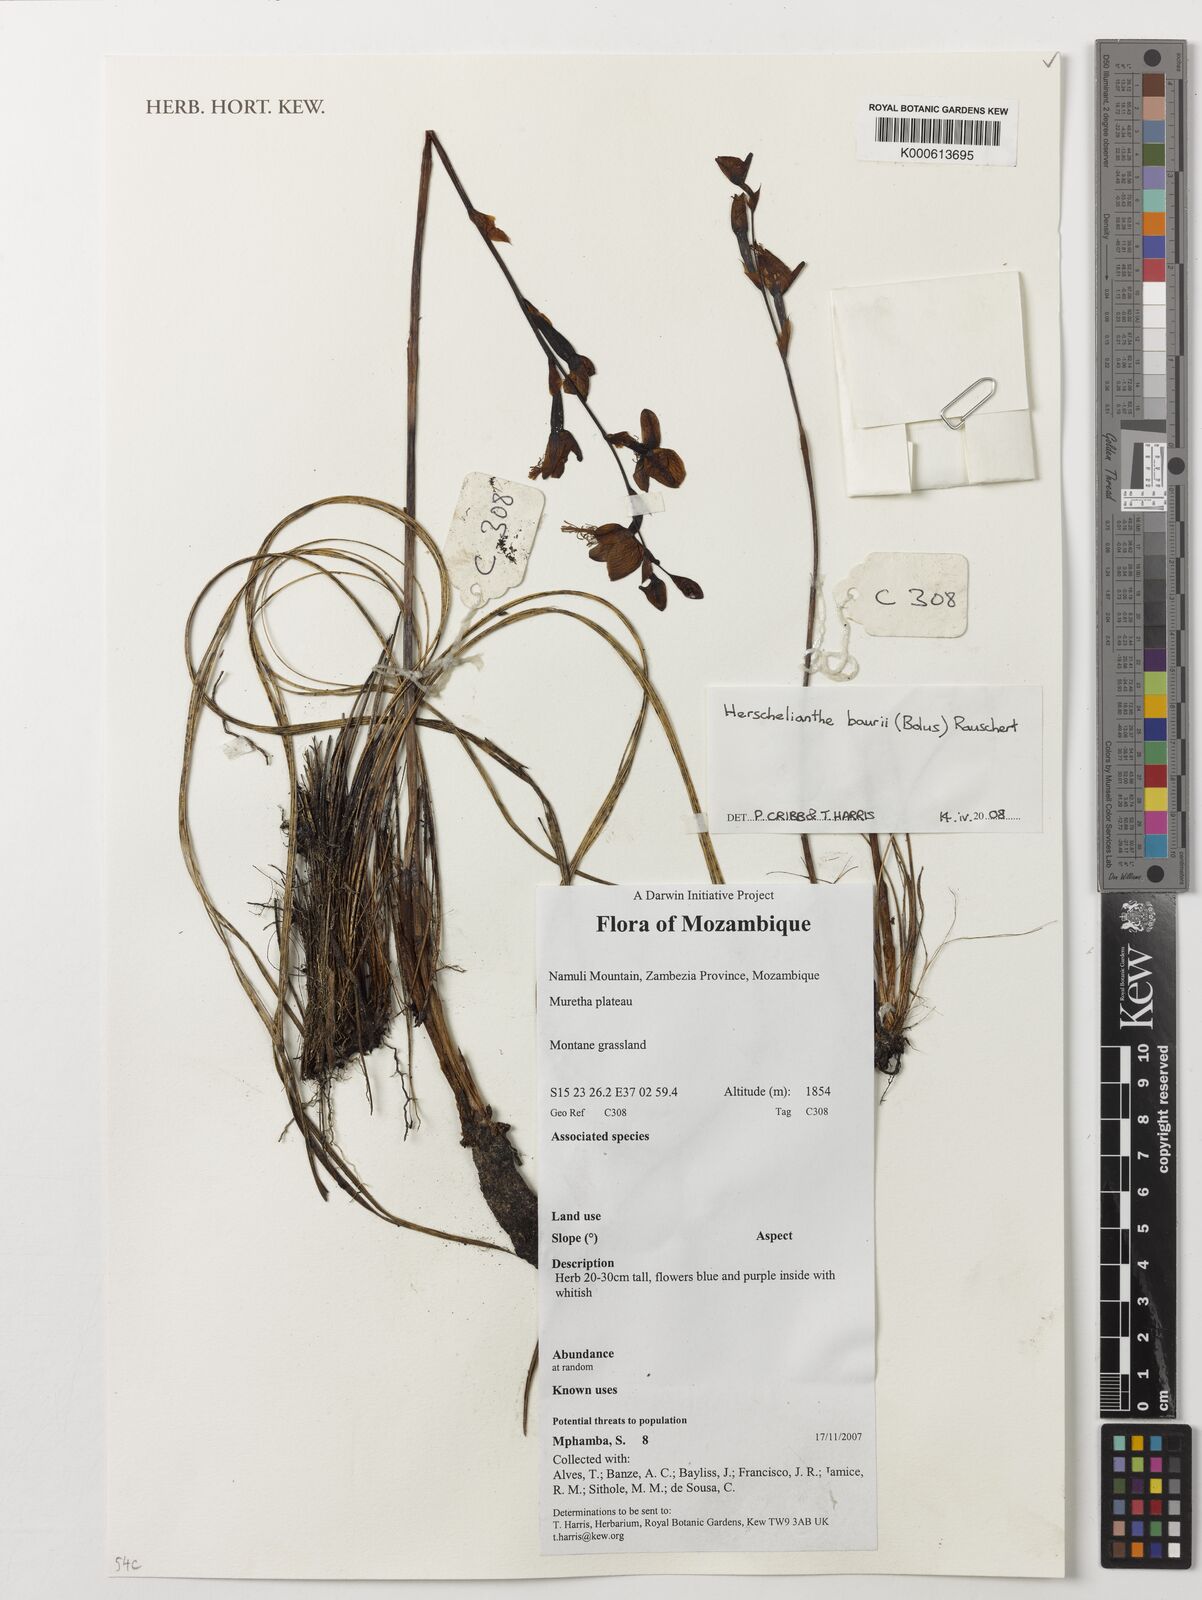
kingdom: Plantae
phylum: Tracheophyta
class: Liliopsida
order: Asparagales
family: Orchidaceae
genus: Disa
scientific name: Disa baurii
